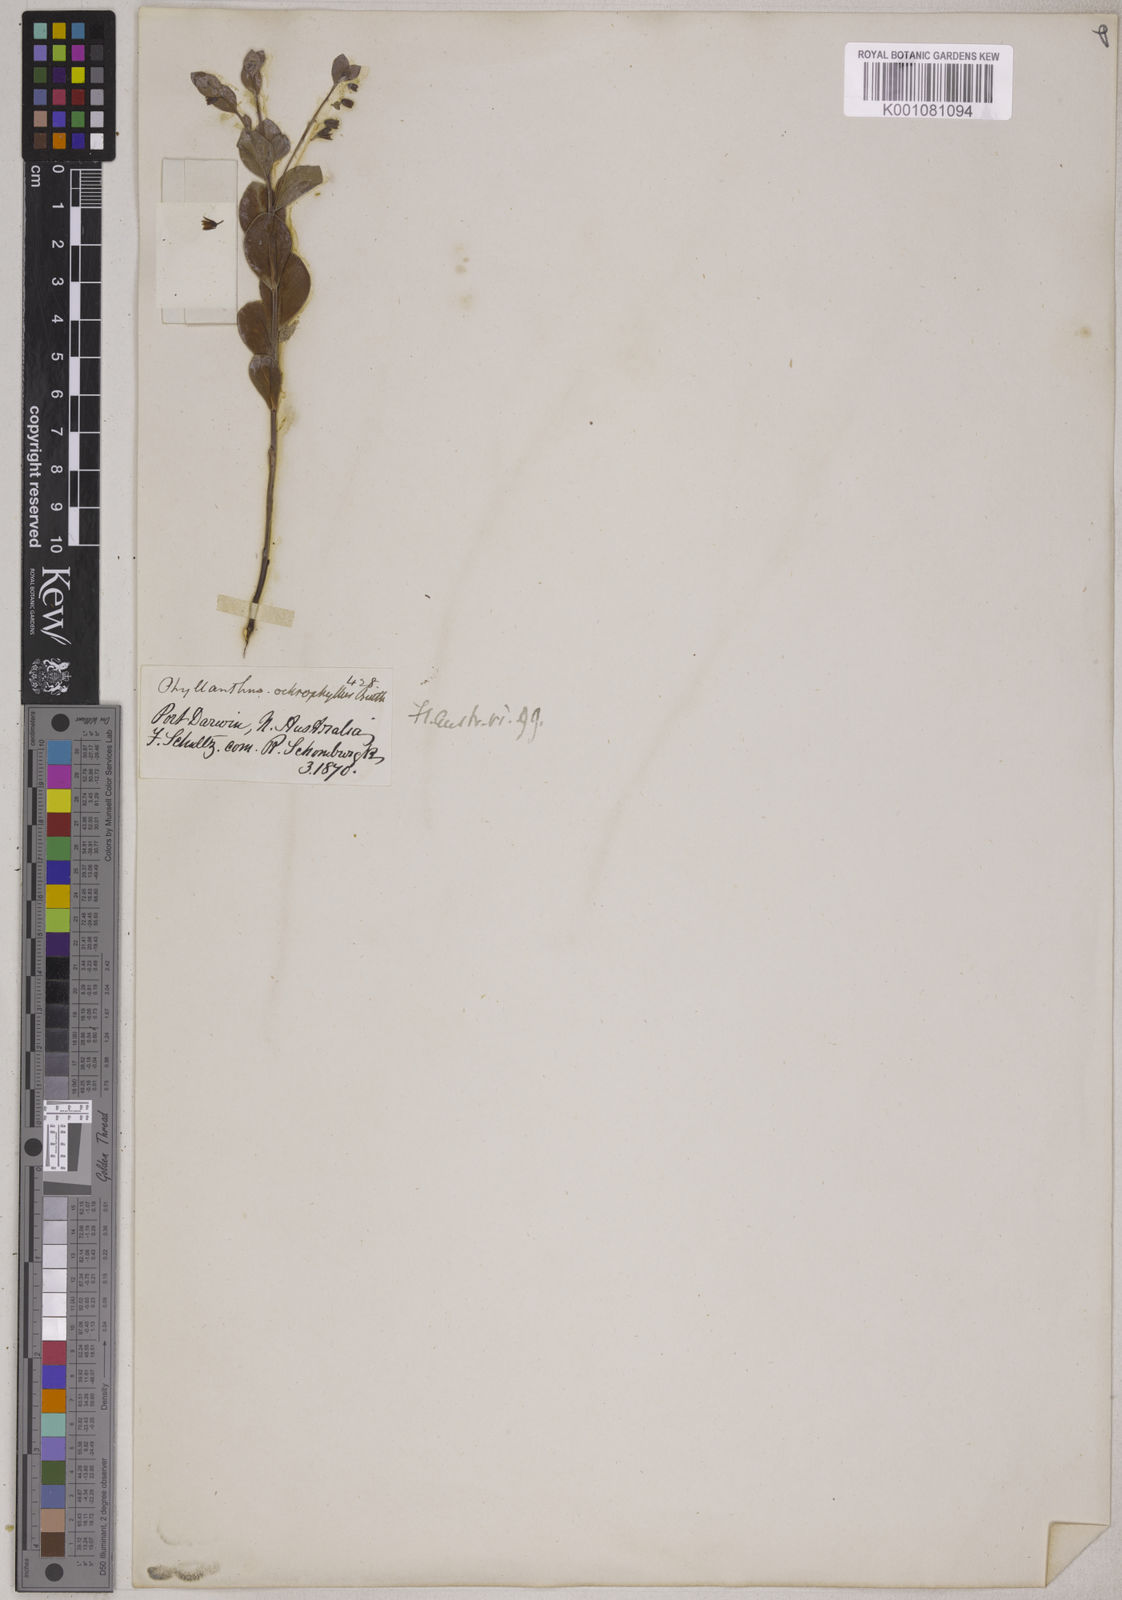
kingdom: Plantae
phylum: Tracheophyta
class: Magnoliopsida
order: Malpighiales
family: Phyllanthaceae
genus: Synostemon
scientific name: Synostemon ochrophyllus
